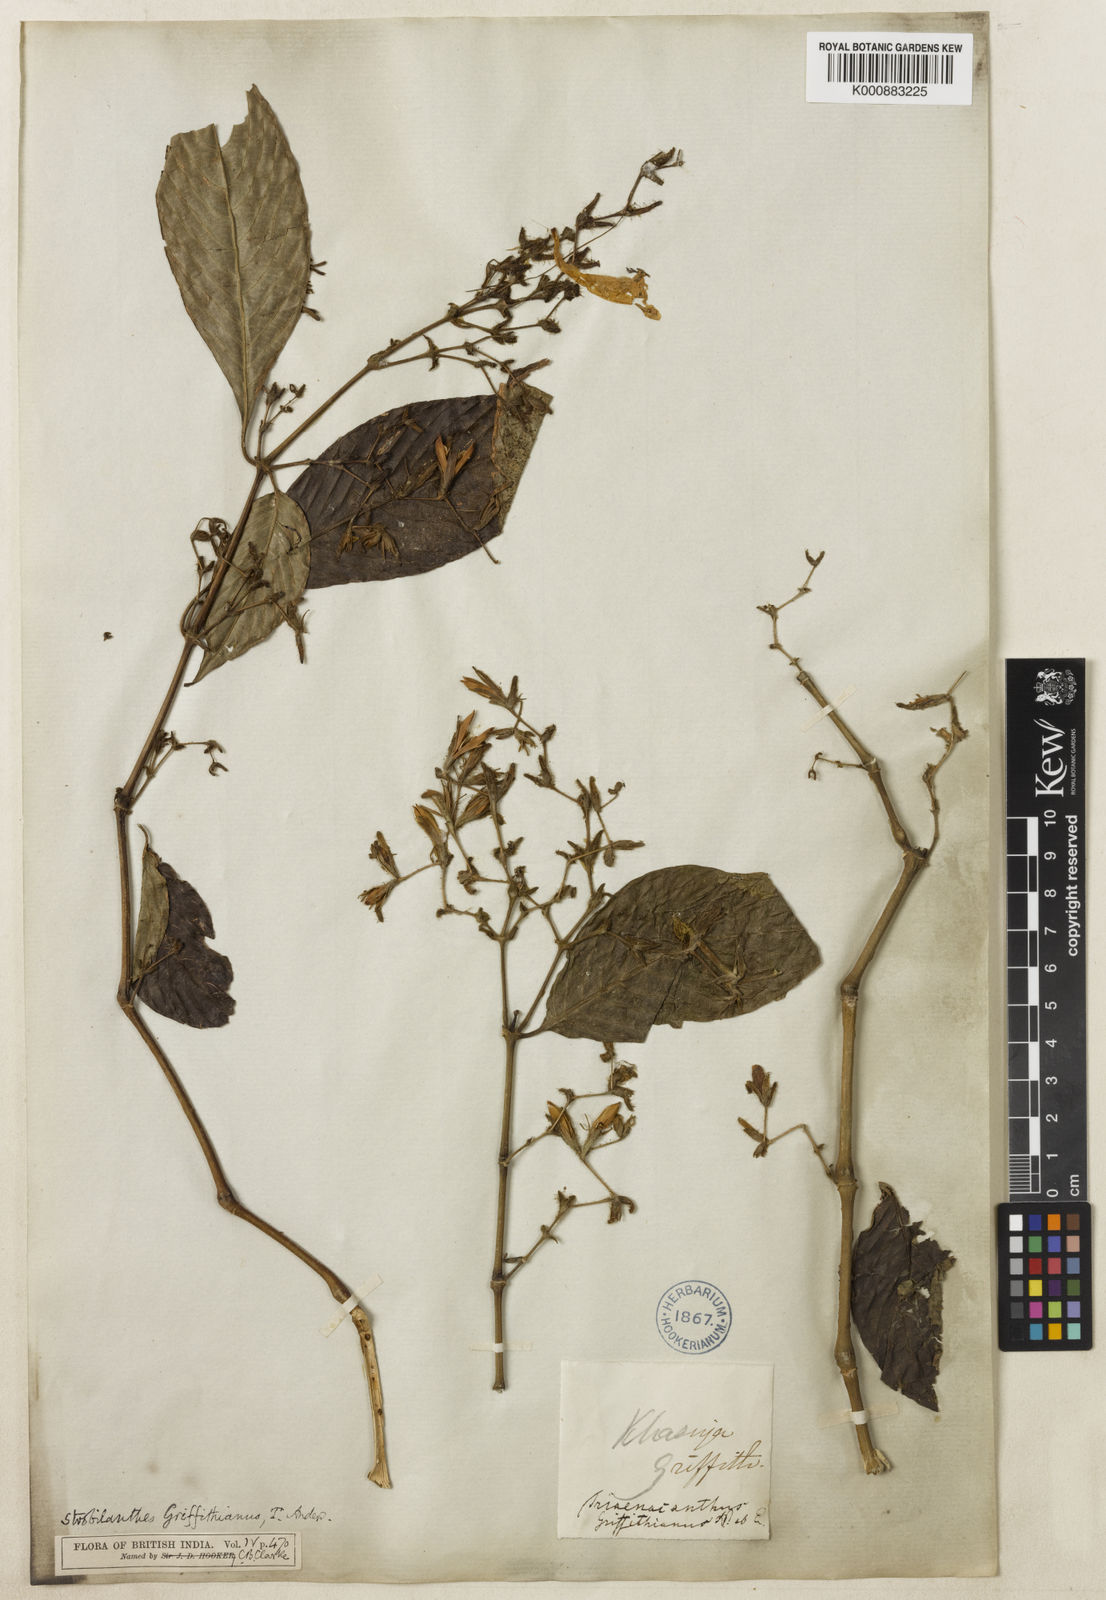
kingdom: Plantae
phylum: Tracheophyta
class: Magnoliopsida
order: Lamiales
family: Acanthaceae
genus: Strobilanthes
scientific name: Strobilanthes cusia
